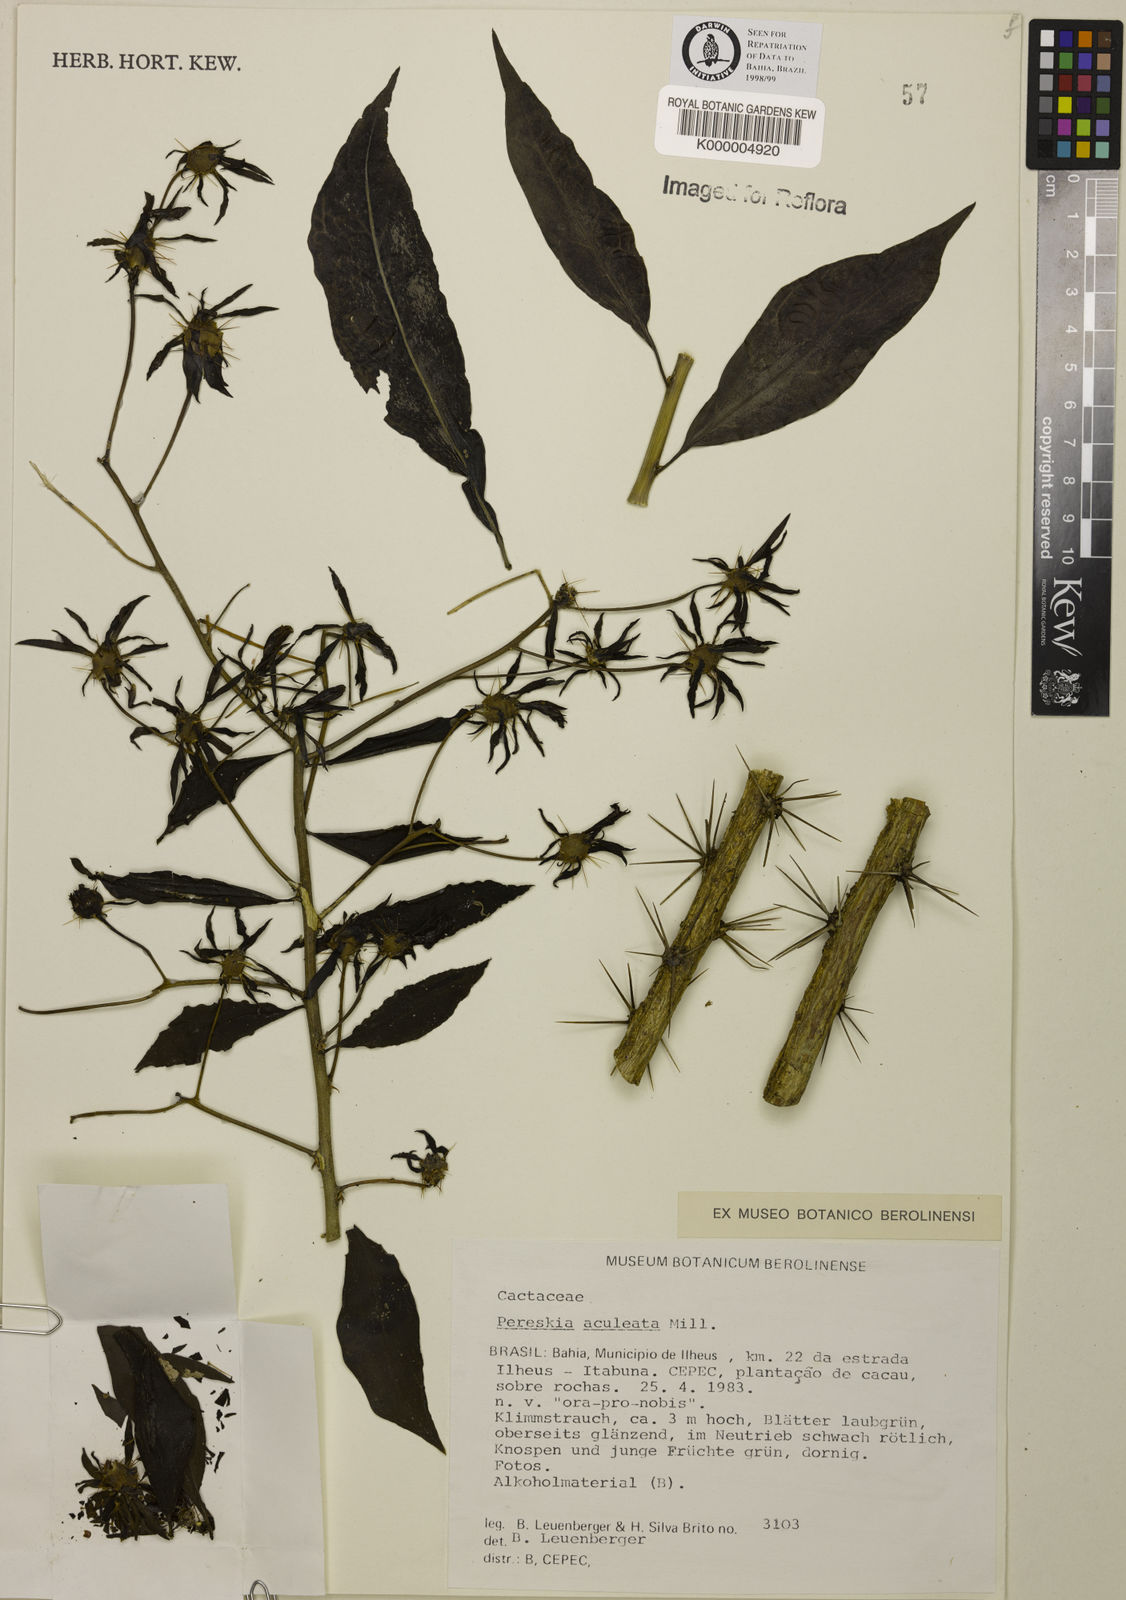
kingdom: Plantae
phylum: Tracheophyta
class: Magnoliopsida
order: Caryophyllales
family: Cactaceae
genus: Pereskia
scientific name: Pereskia aculeata
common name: Barbados gooseberry
